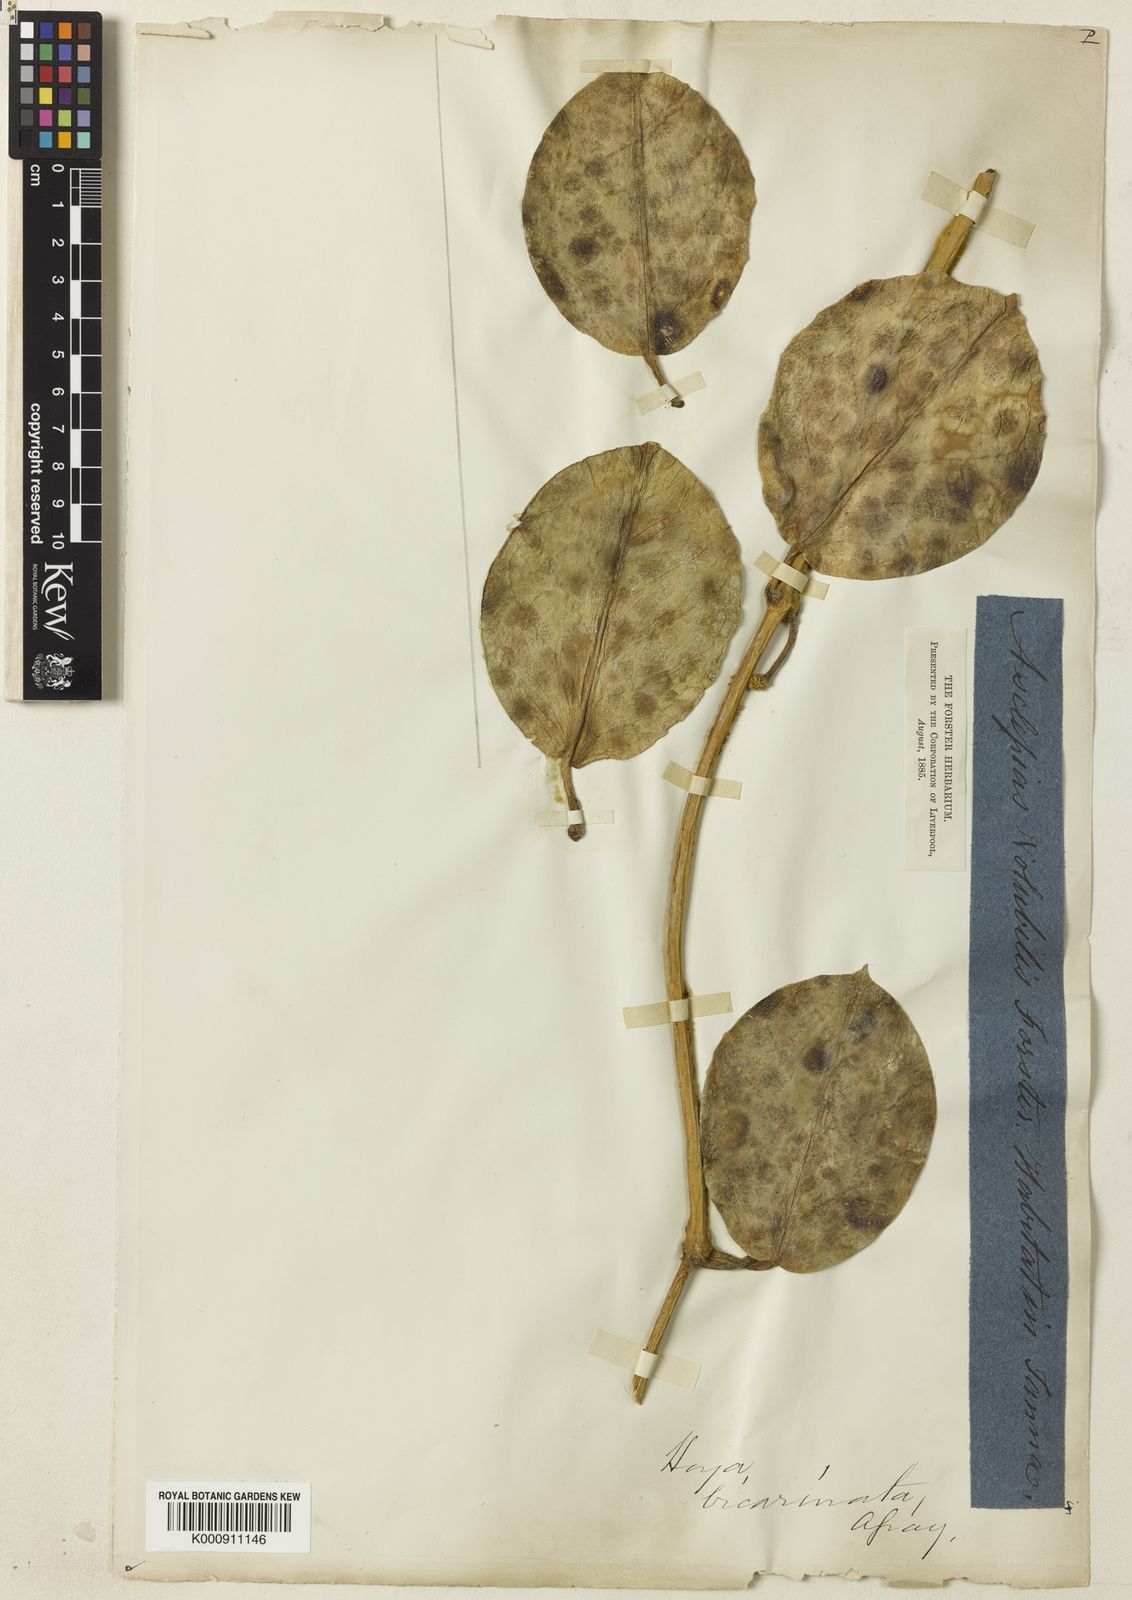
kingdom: Plantae
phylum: Tracheophyta
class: Magnoliopsida
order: Gentianales
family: Apocynaceae
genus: Hoya
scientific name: Hoya australis
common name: Wax flower
